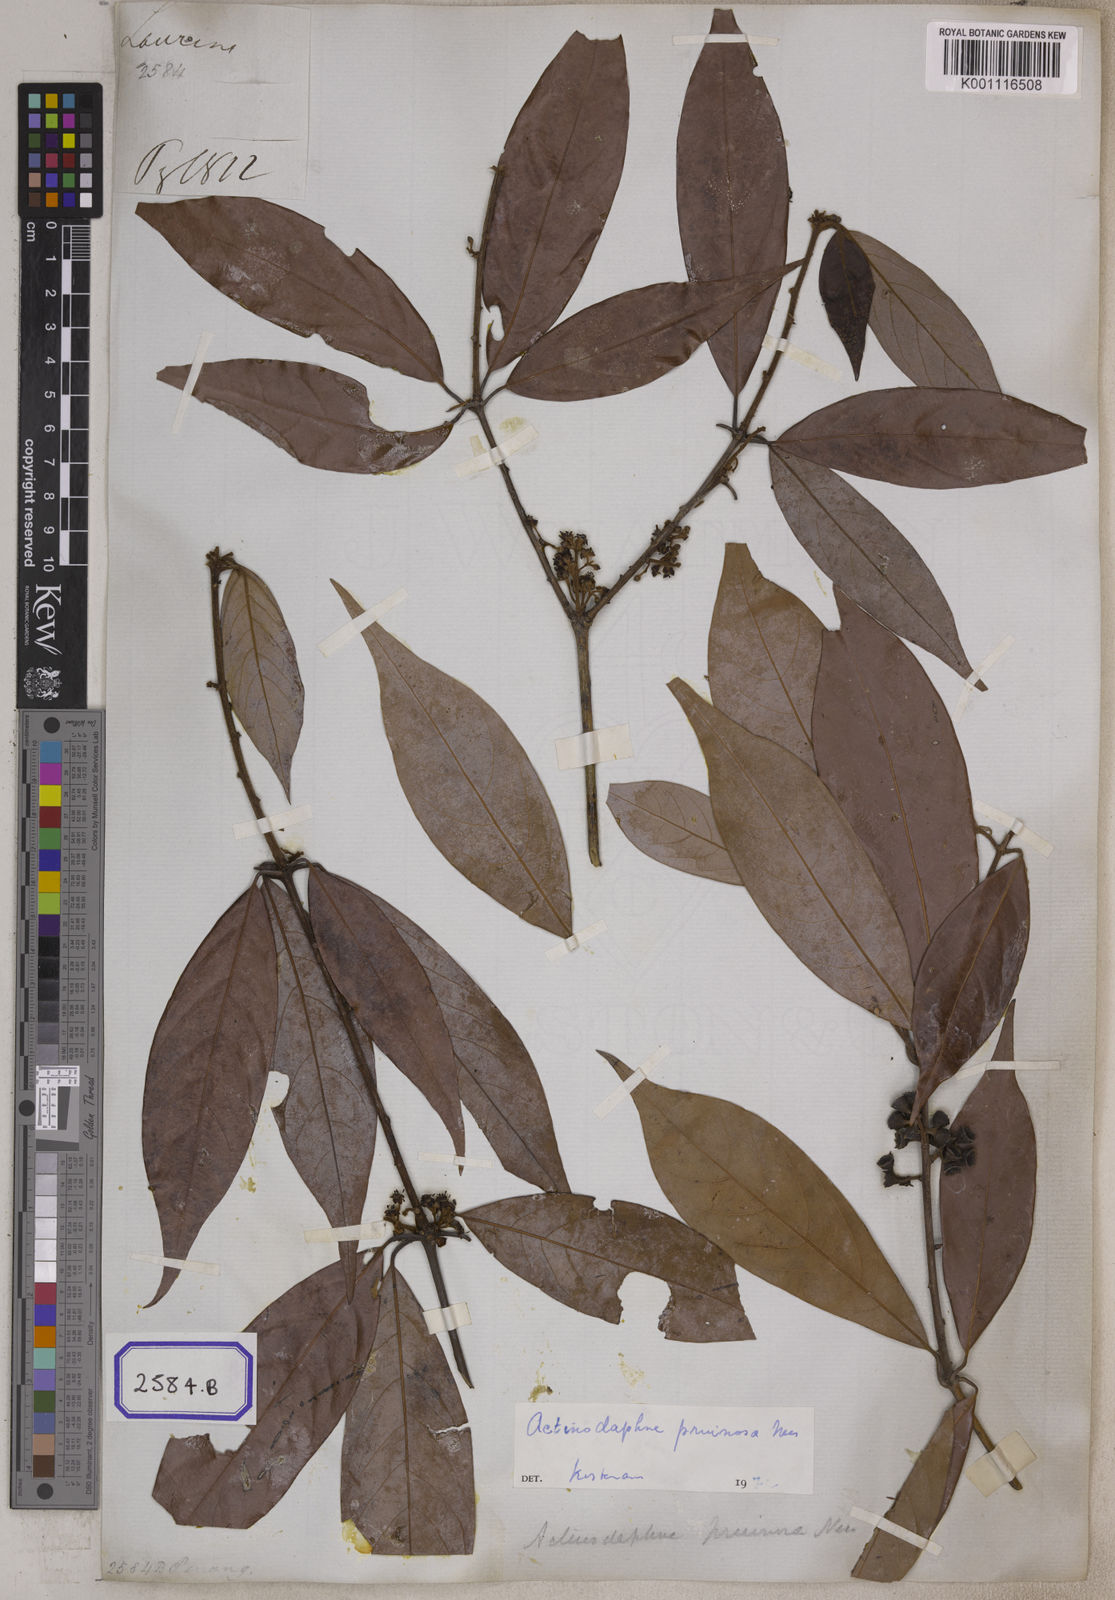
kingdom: Plantae
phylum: Tracheophyta
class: Magnoliopsida
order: Laurales
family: Lauraceae
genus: Actinodaphne
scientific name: Actinodaphne pruinosa
